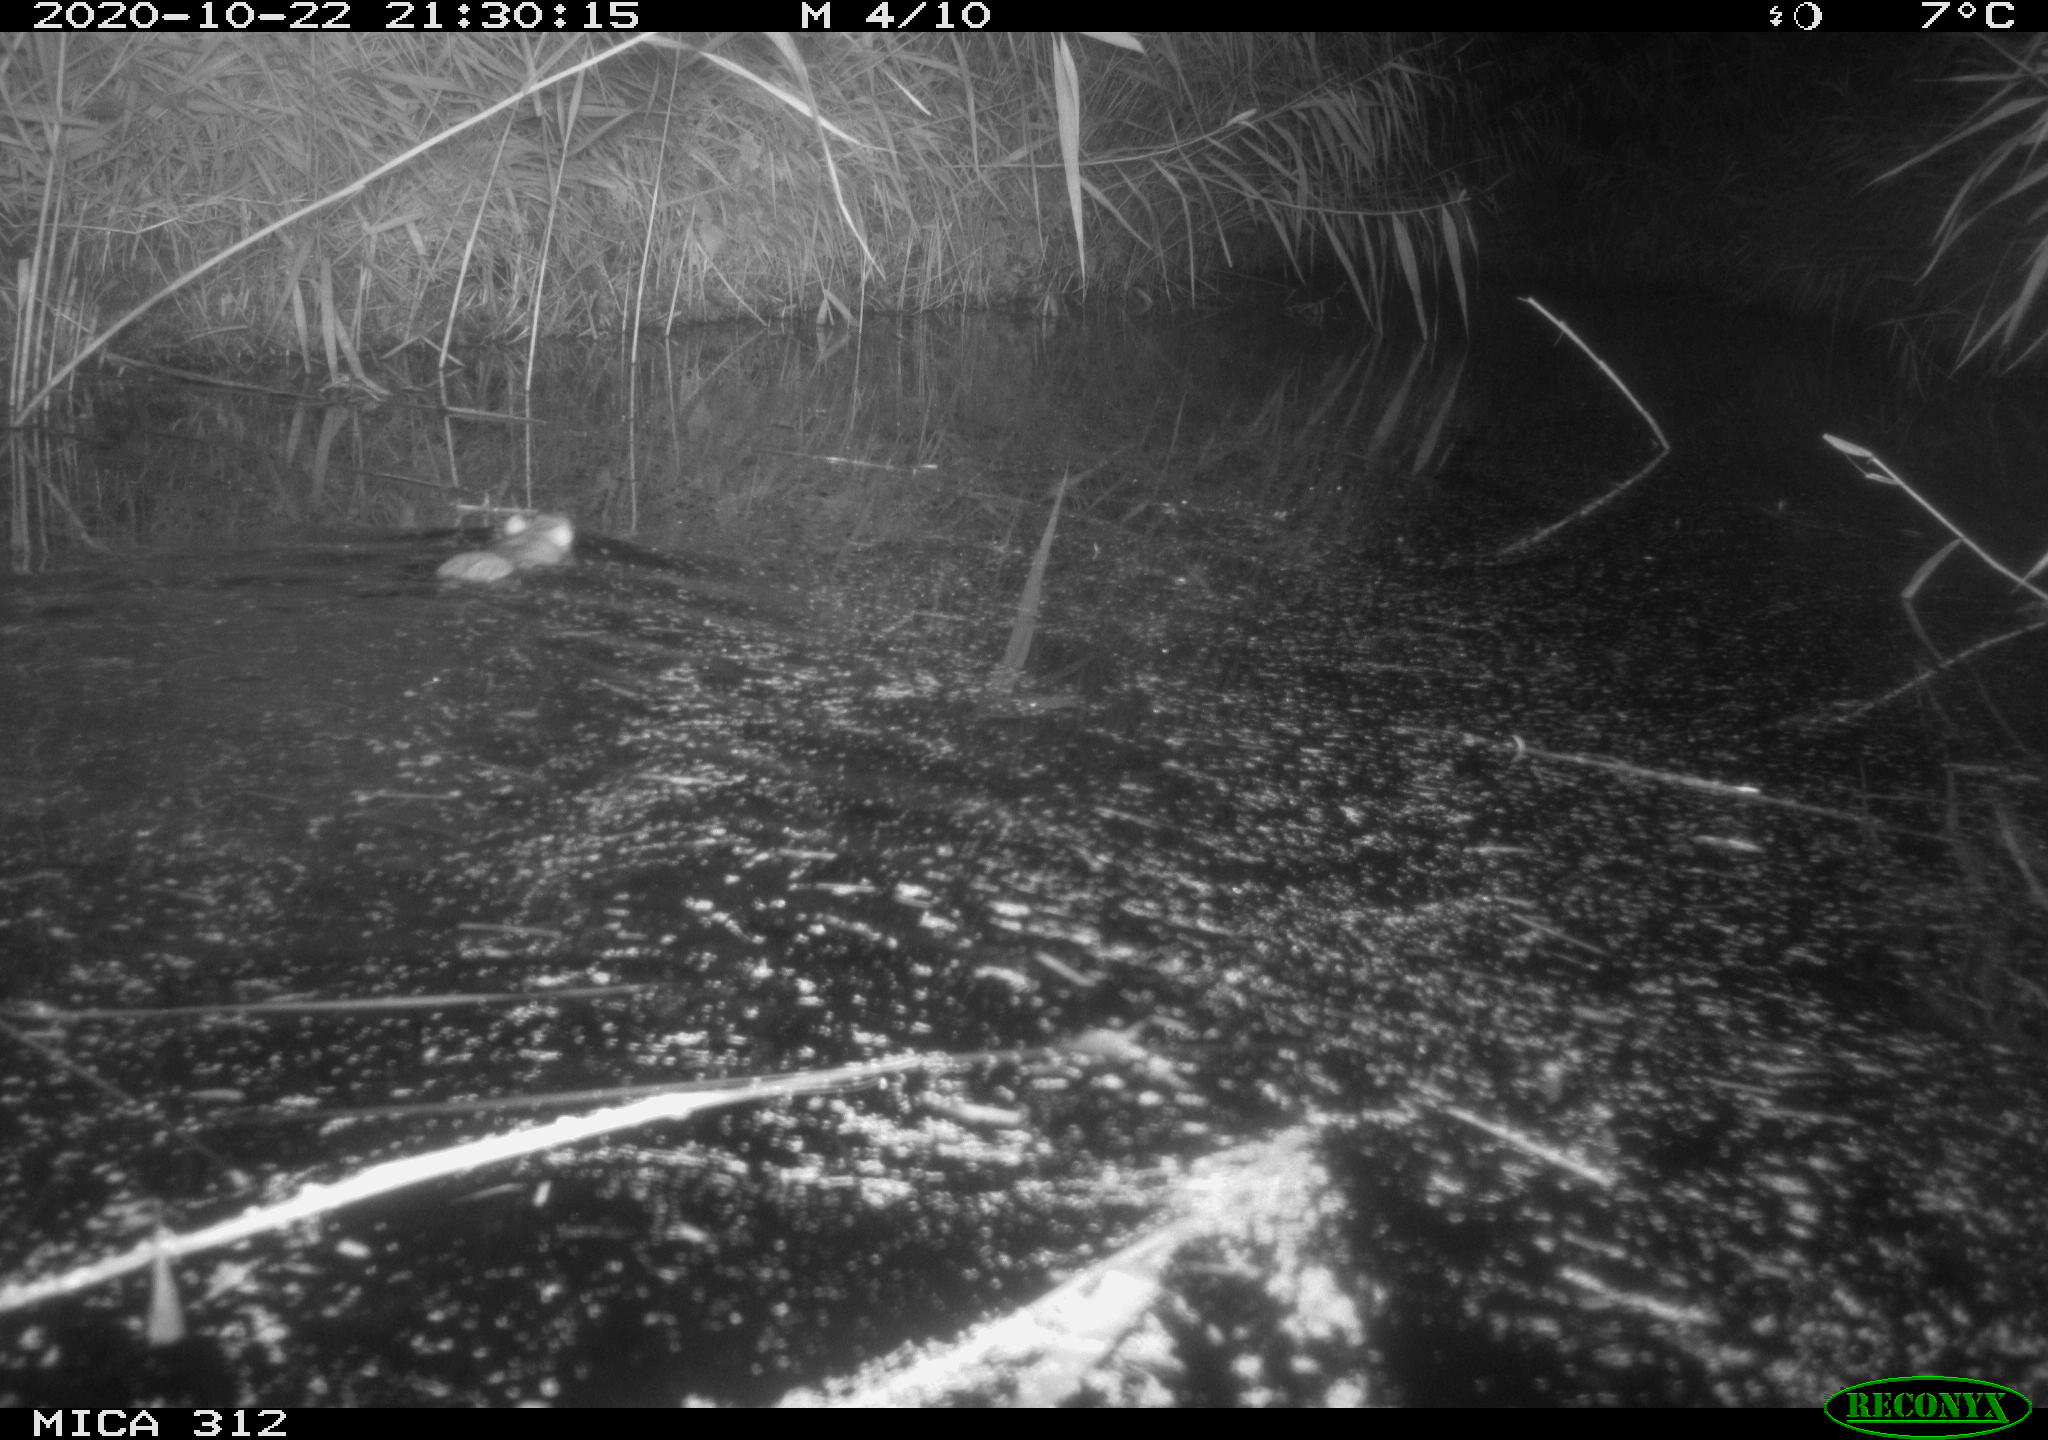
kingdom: Animalia
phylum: Chordata
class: Mammalia
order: Rodentia
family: Muridae
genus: Rattus
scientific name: Rattus norvegicus
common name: Brown rat
